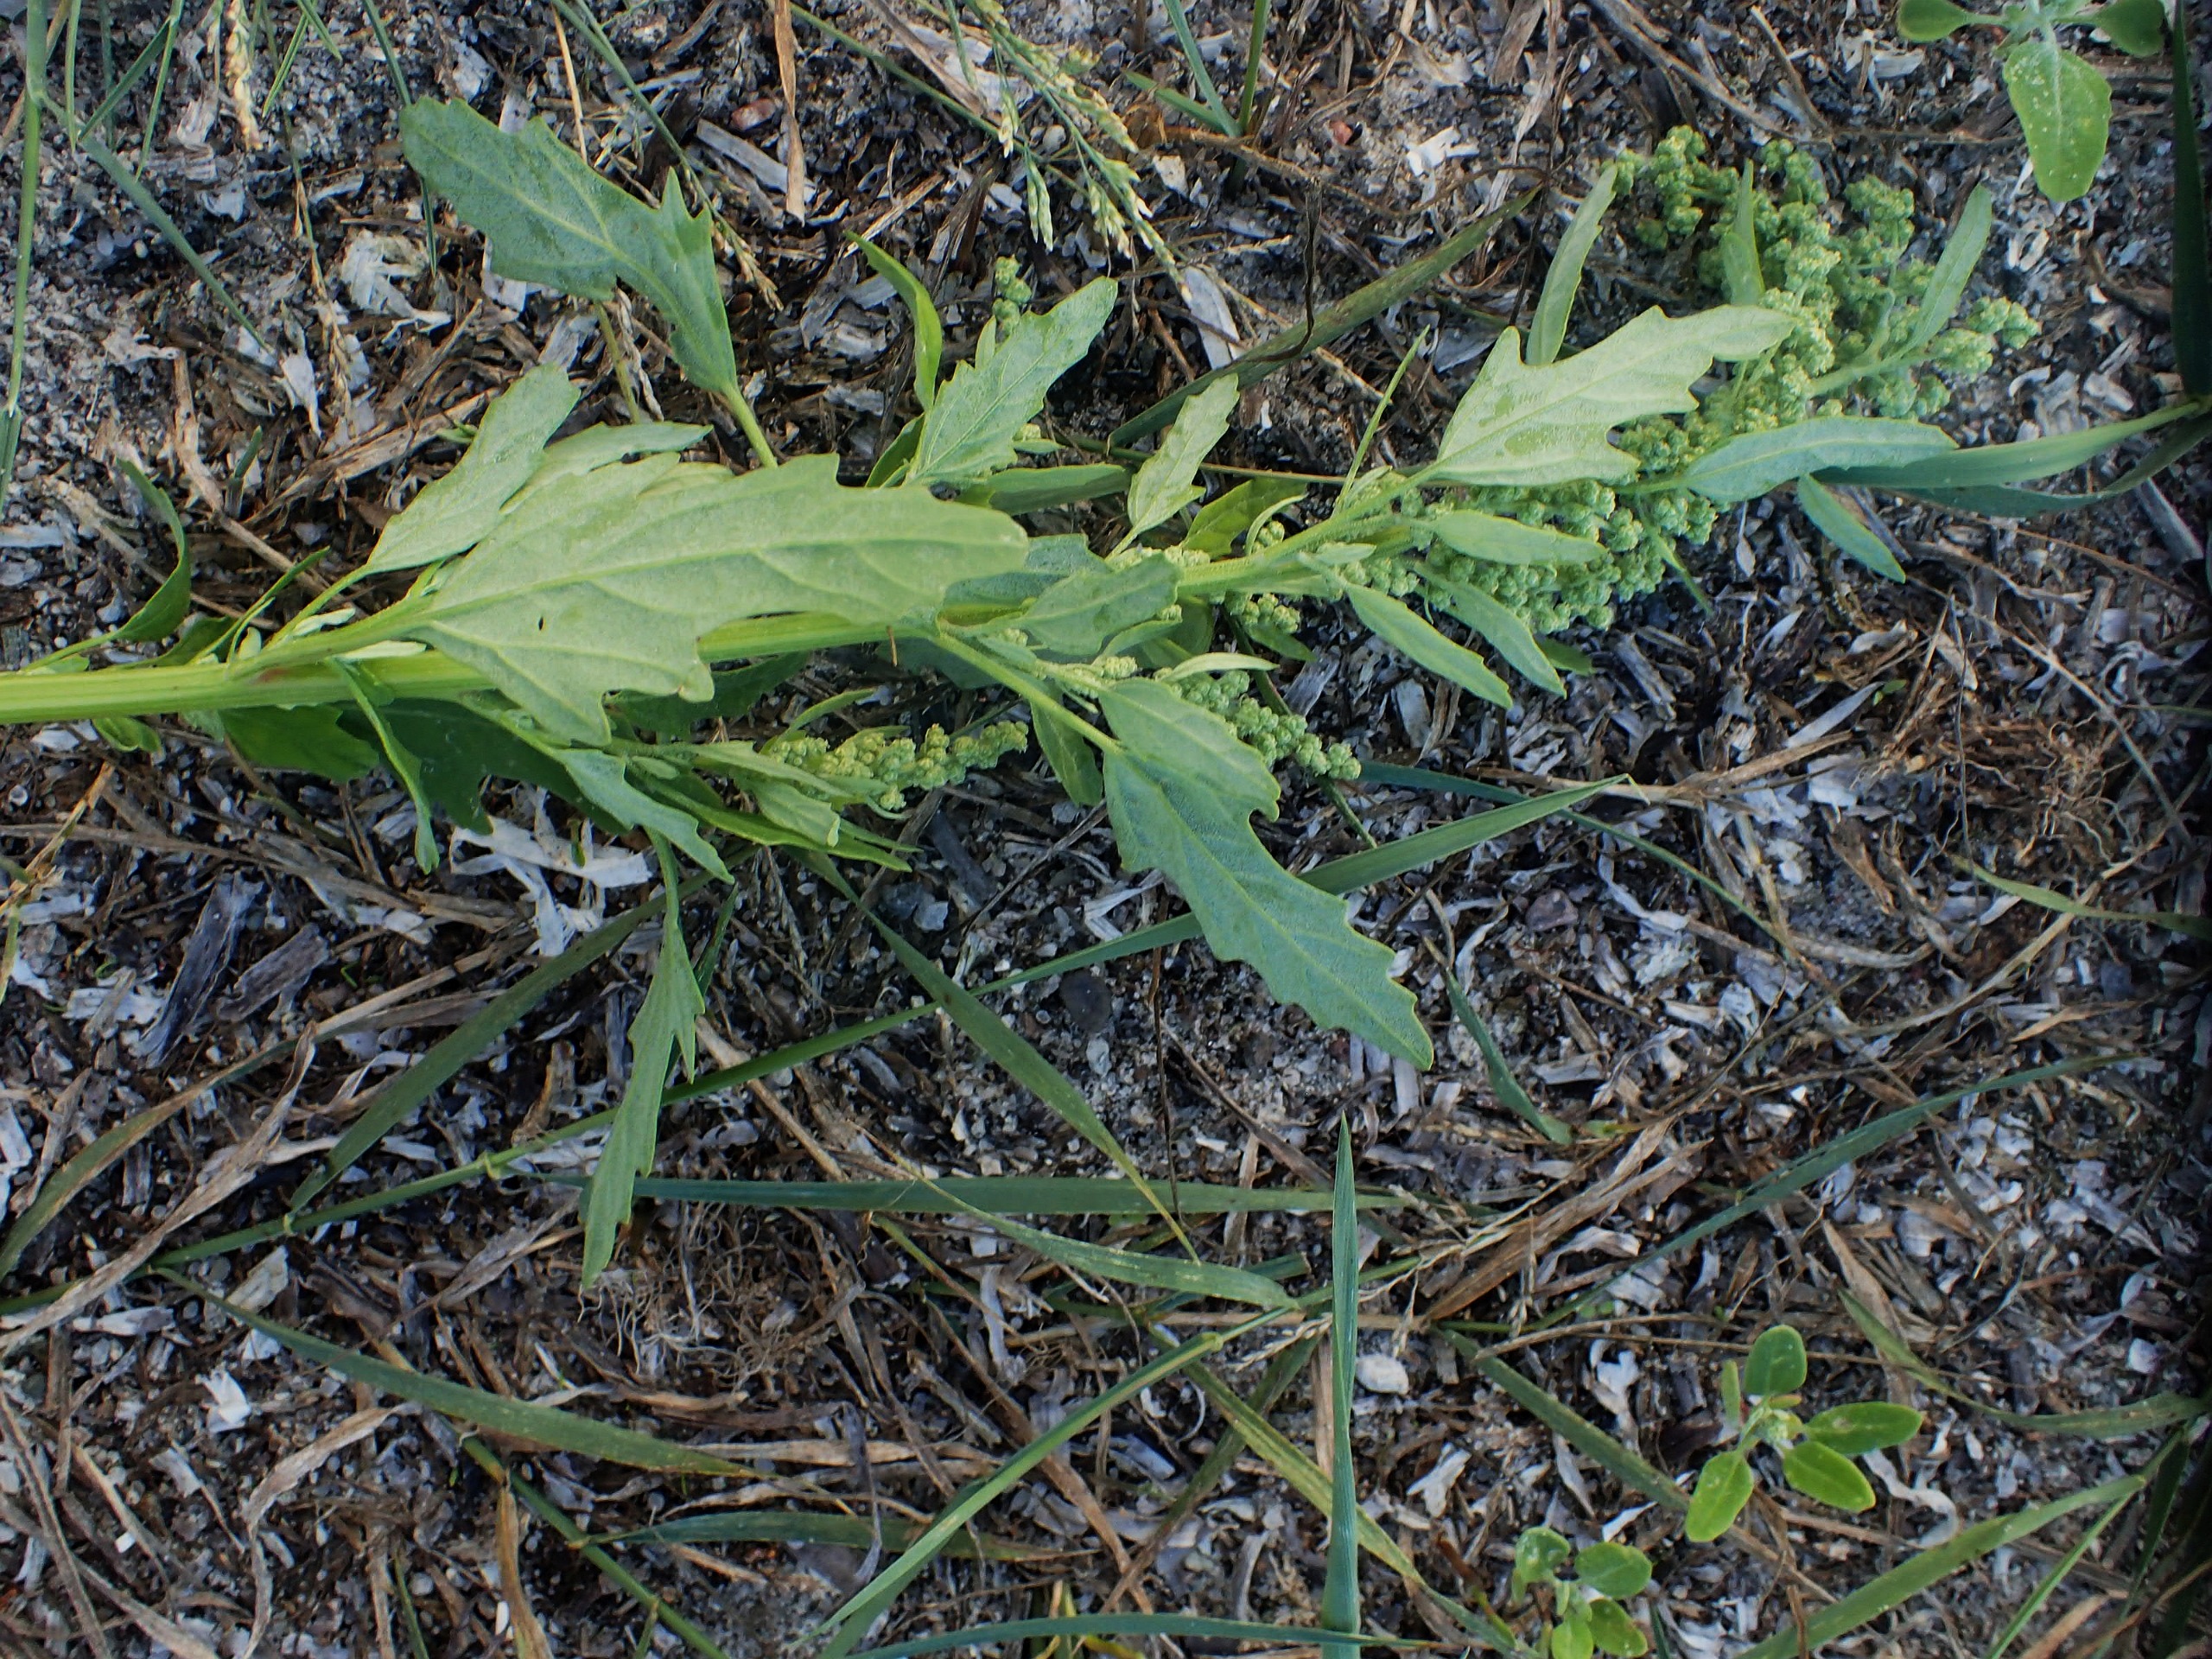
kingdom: Plantae
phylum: Tracheophyta
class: Magnoliopsida
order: Caryophyllales
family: Amaranthaceae
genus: Chenopodium
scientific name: Chenopodium ficifolium
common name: Figenbladet gåsefod
